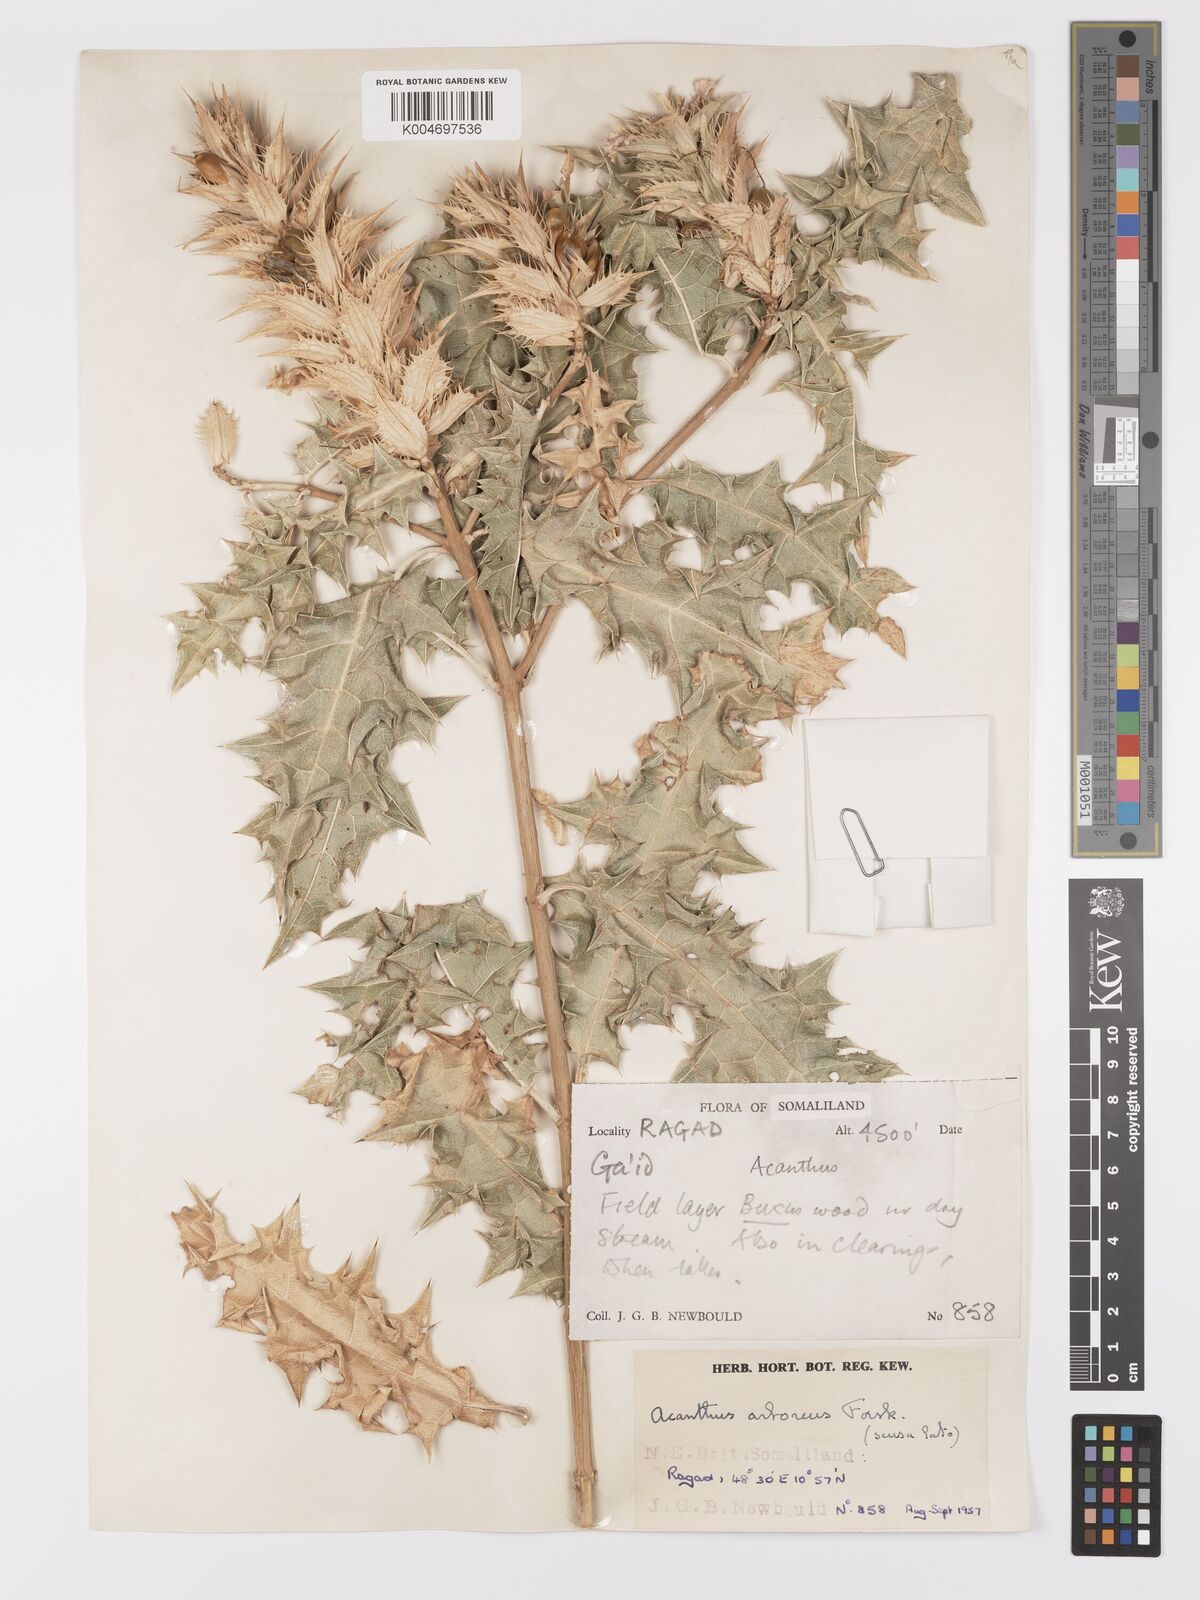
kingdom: Plantae
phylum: Tracheophyta
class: Magnoliopsida
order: Lamiales
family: Acanthaceae
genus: Acanthus
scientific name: Acanthus gaed
